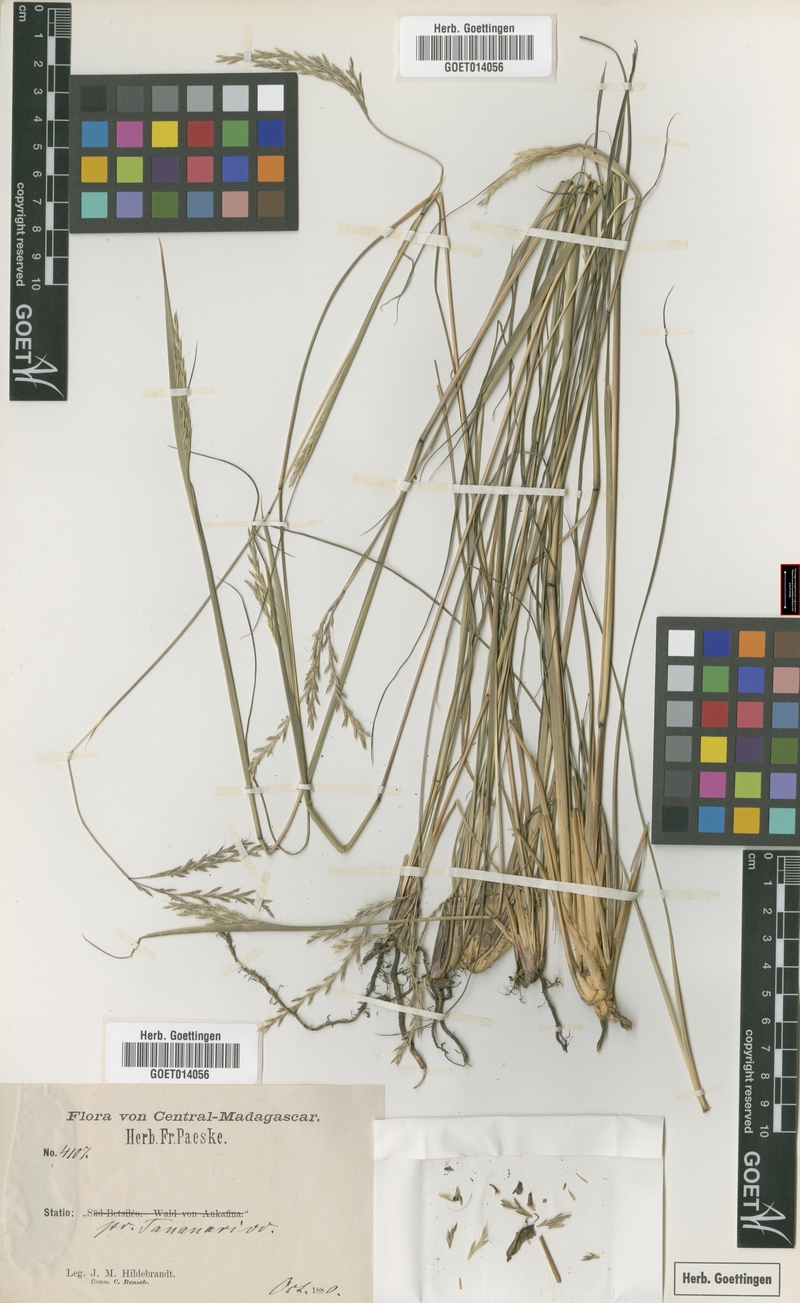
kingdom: Plantae
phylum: Tracheophyta
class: Liliopsida
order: Poales
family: Poaceae
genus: Andropogon
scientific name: Andropogon trichozygus
